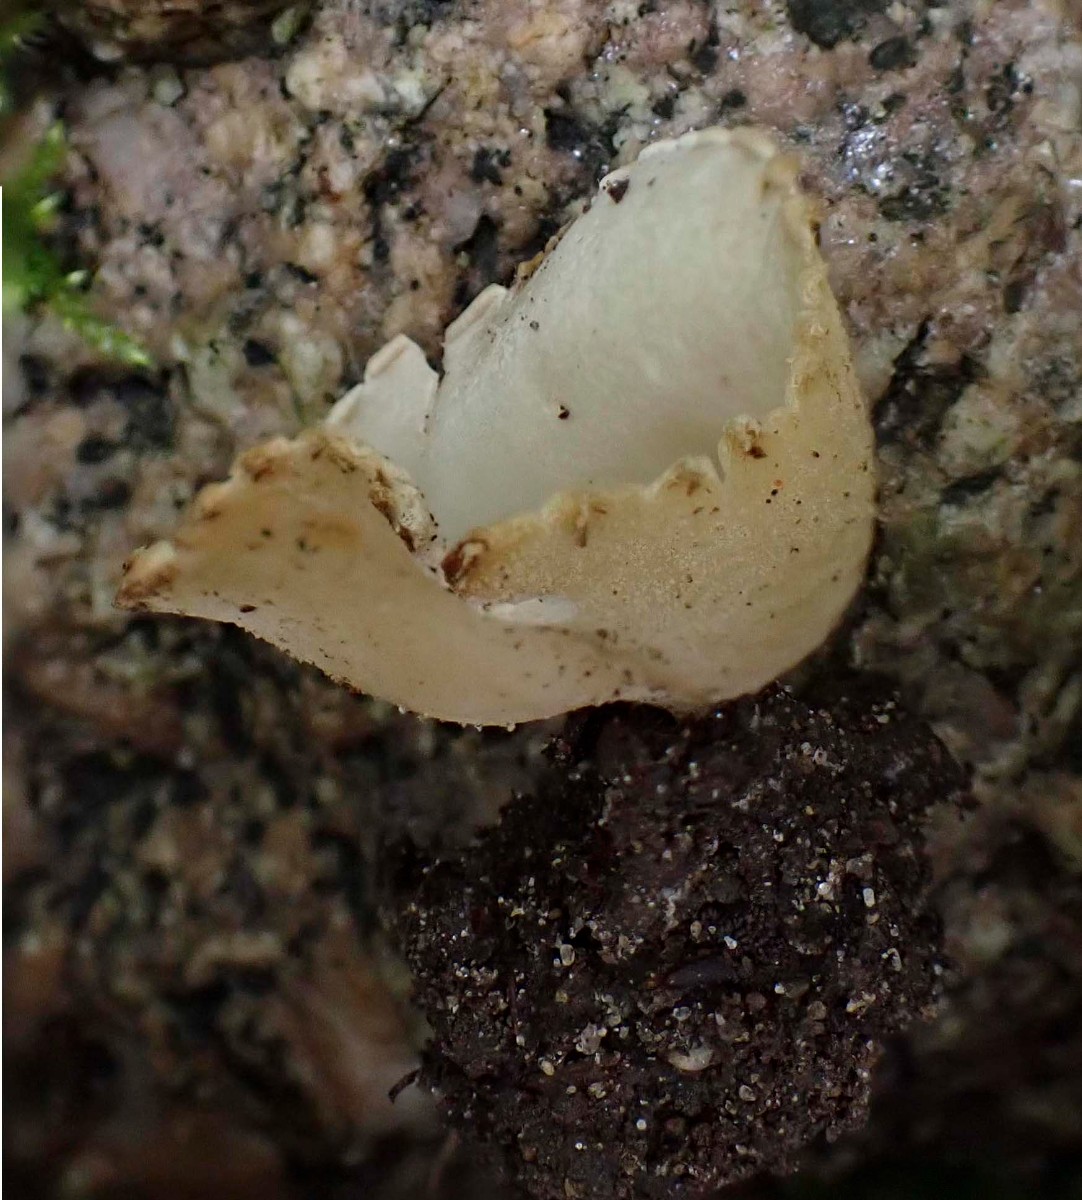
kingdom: Fungi
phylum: Ascomycota
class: Pezizomycetes
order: Pezizales
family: Pyronemataceae
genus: Tarzetta
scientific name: Tarzetta cupularis
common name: gulbrun pokalbæger
